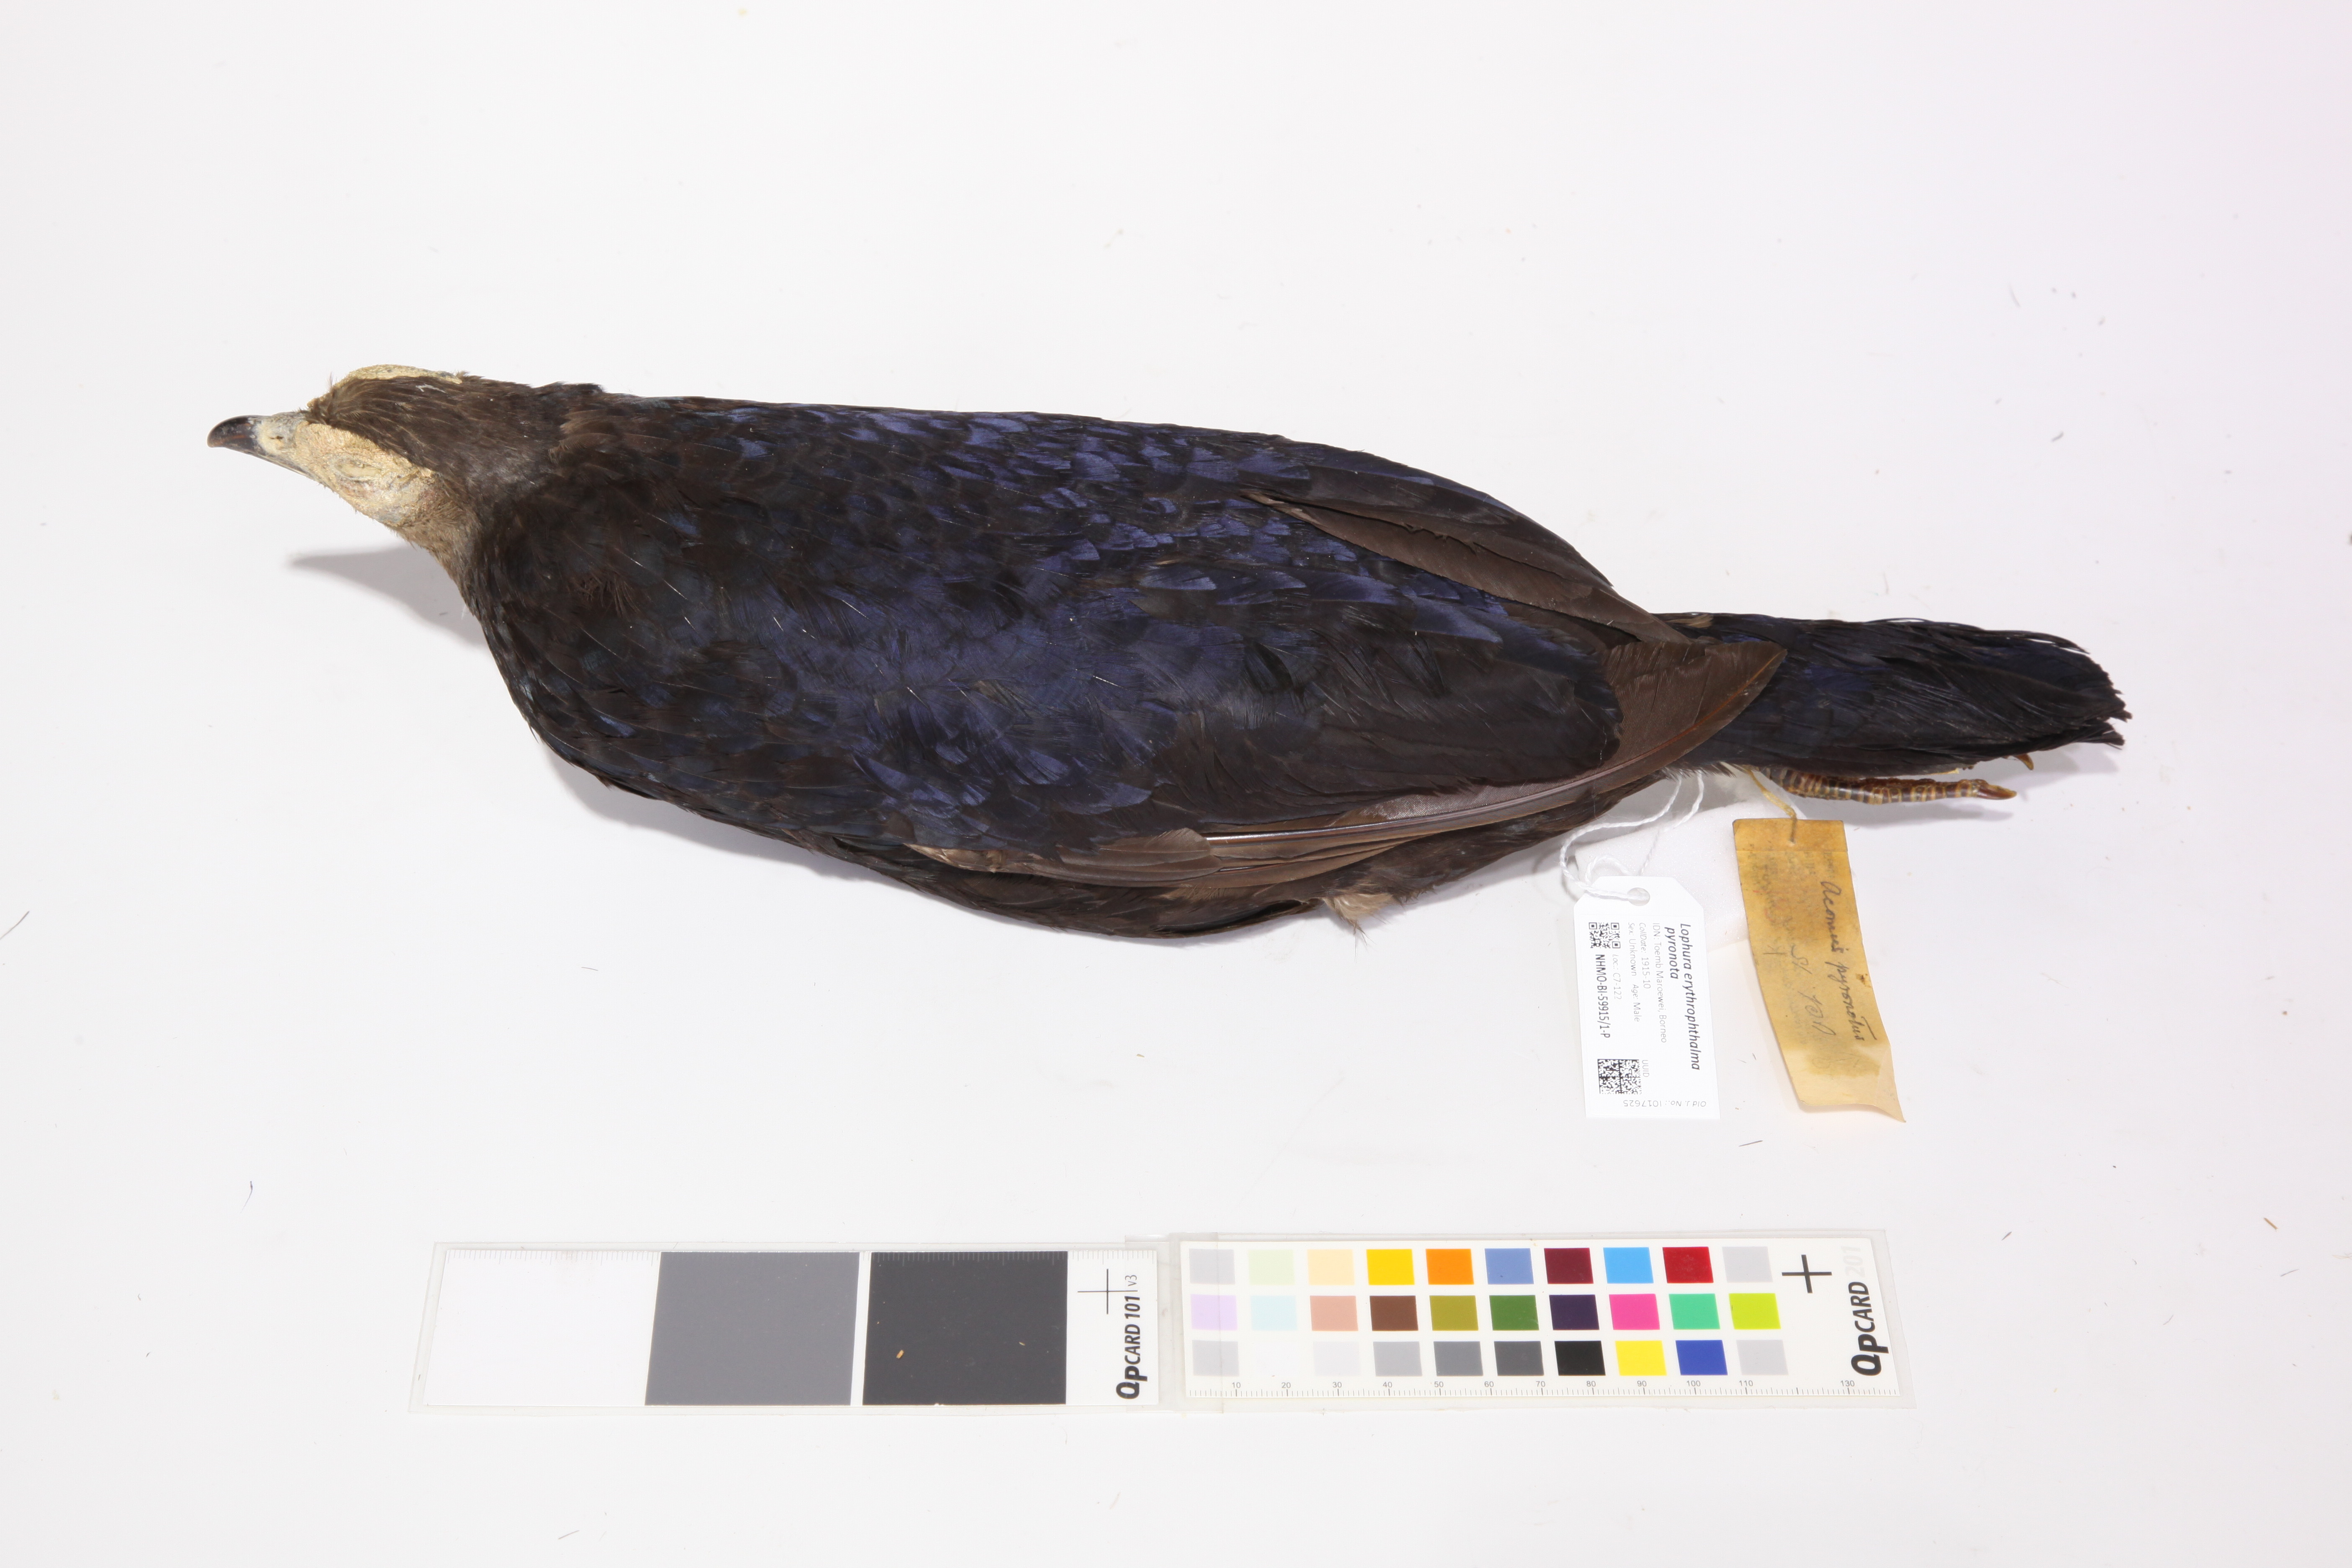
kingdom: Animalia
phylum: Chordata
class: Aves
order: Galliformes
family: Phasianidae
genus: Lophura
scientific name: Lophura erythrophthalma
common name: Crestless fireback
